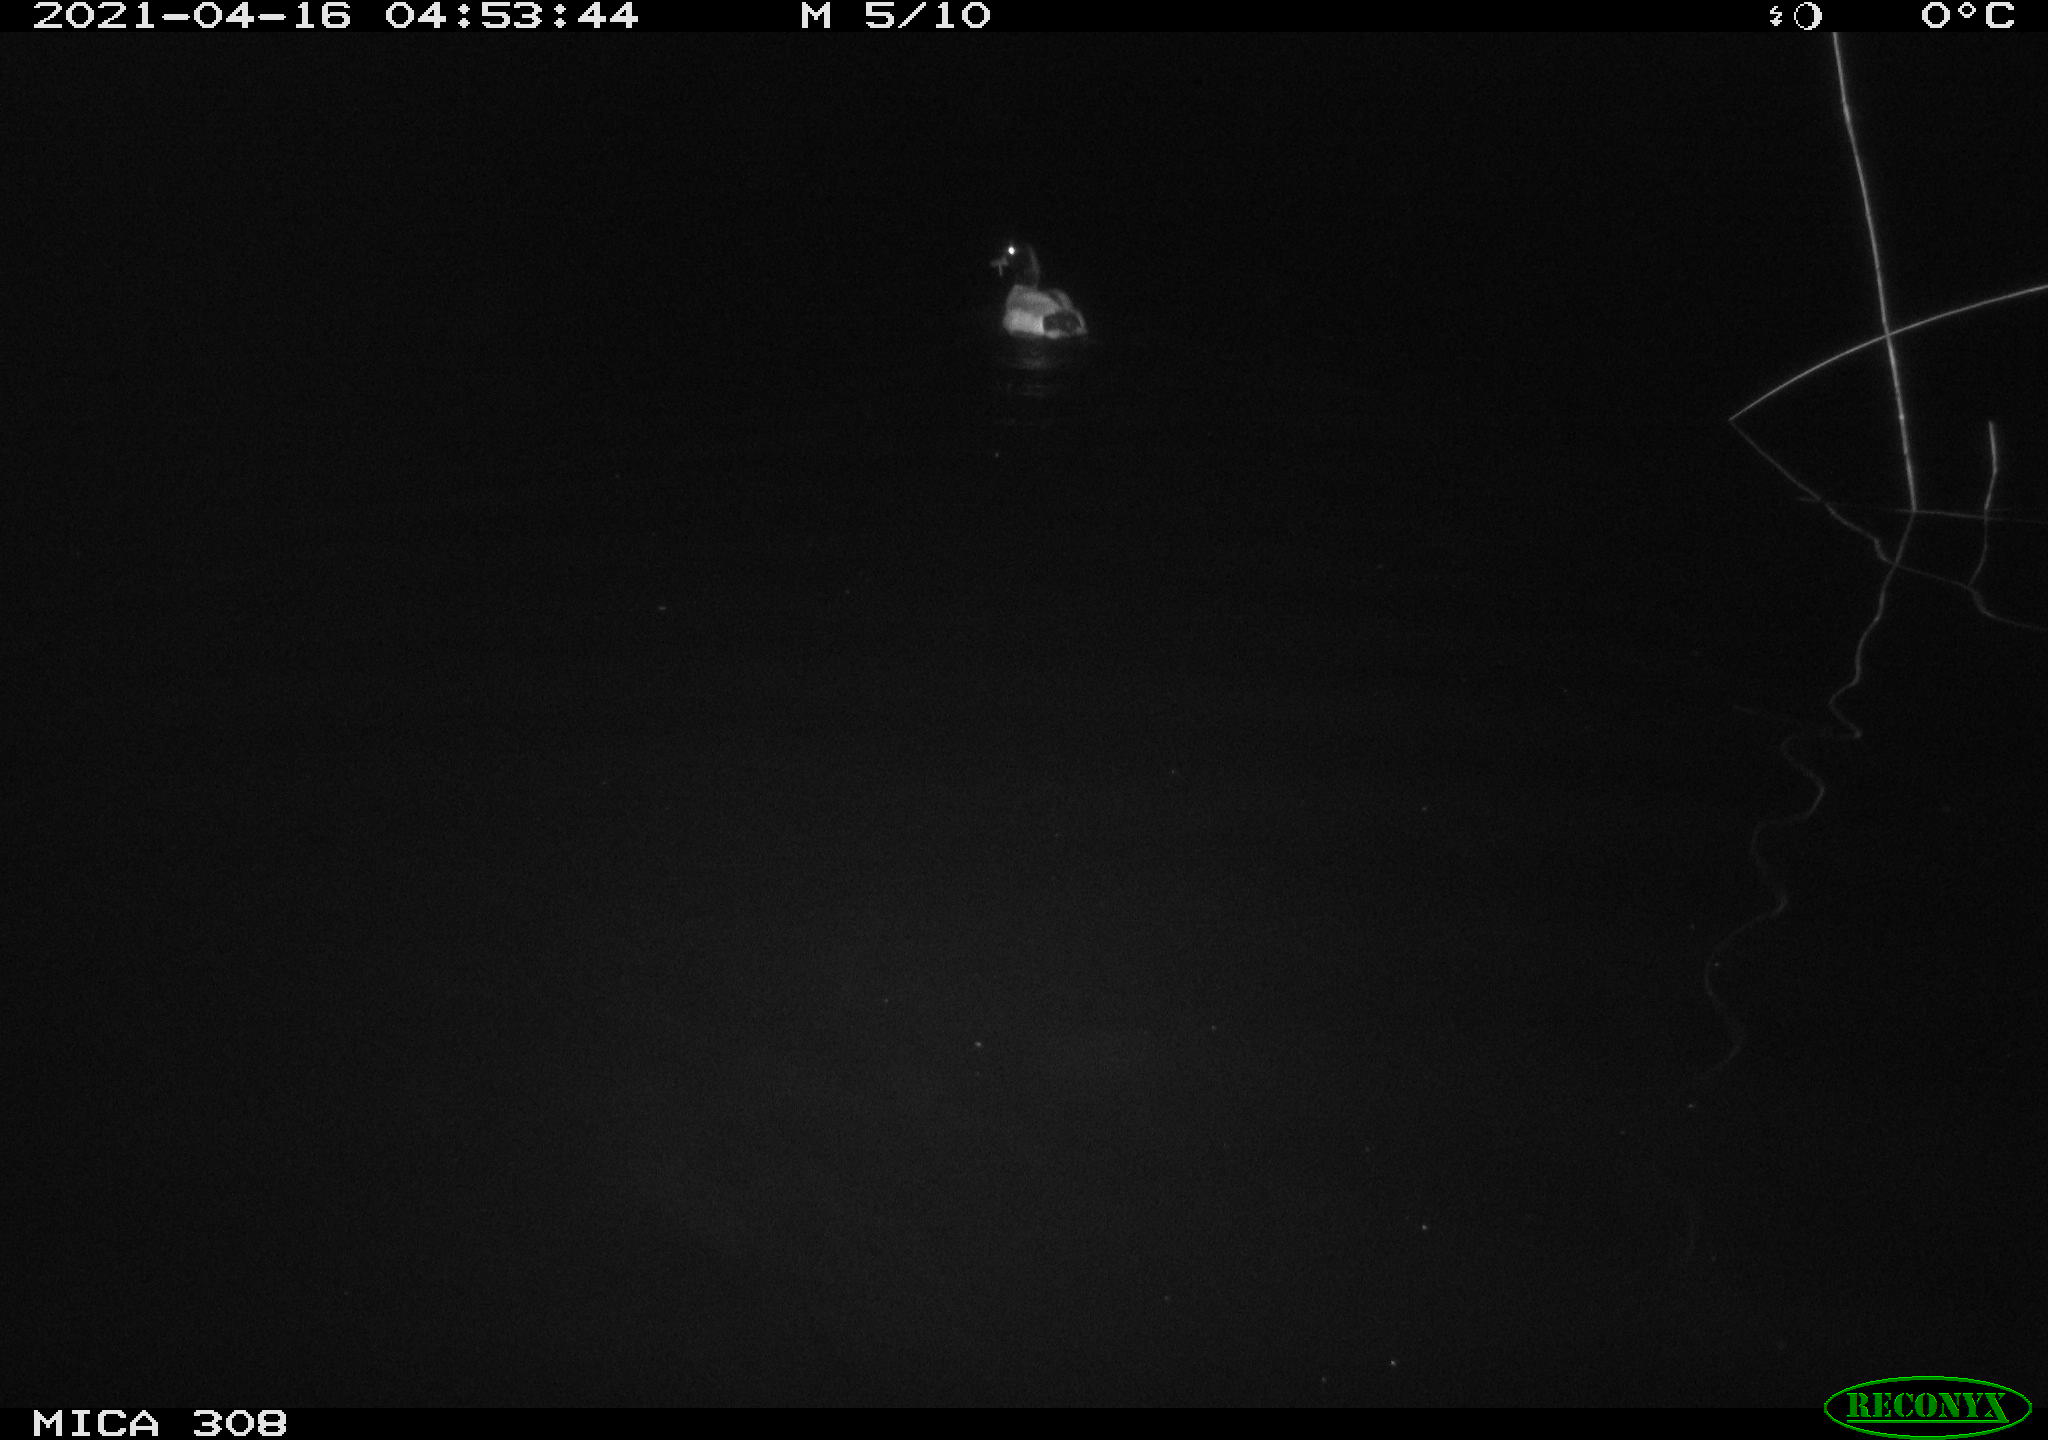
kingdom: Animalia
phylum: Chordata
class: Aves
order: Anseriformes
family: Anatidae
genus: Anas
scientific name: Anas platyrhynchos
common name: Mallard
